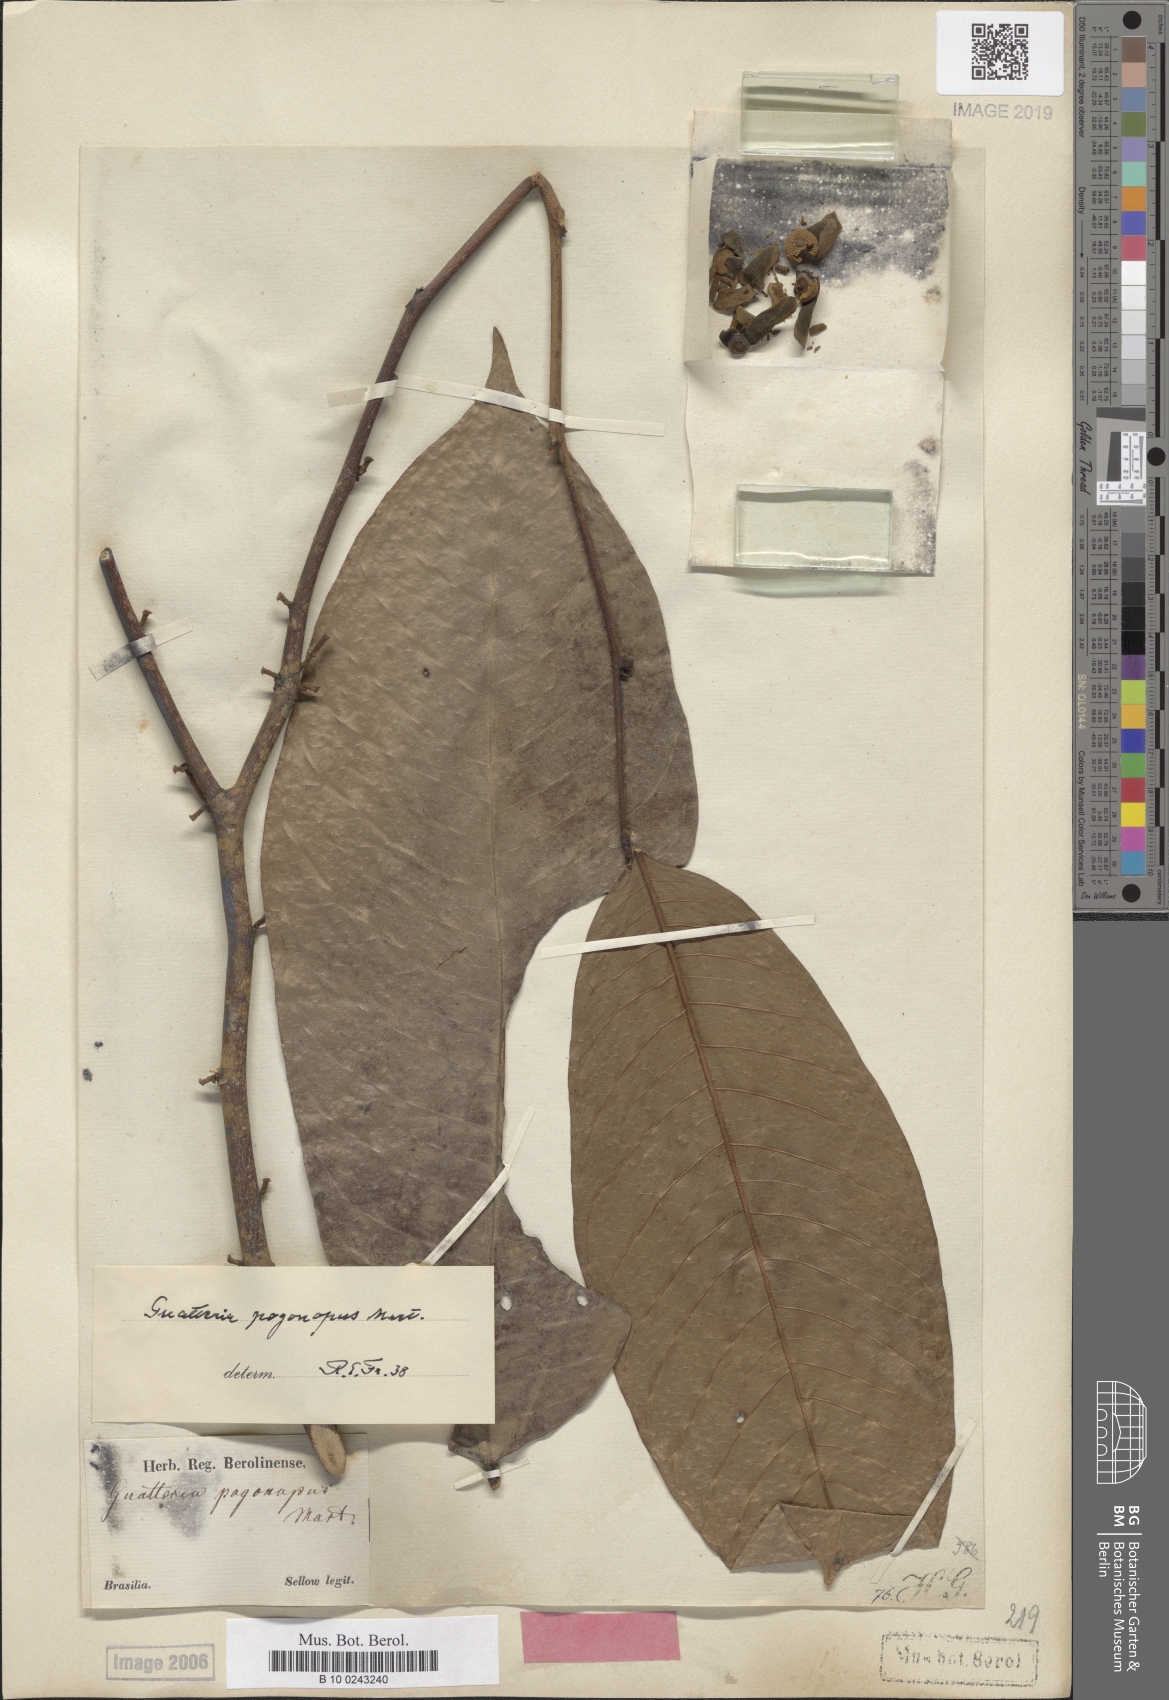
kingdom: Plantae
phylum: Tracheophyta
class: Magnoliopsida
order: Magnoliales
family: Annonaceae
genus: Guatteria
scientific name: Guatteria pogonopus
